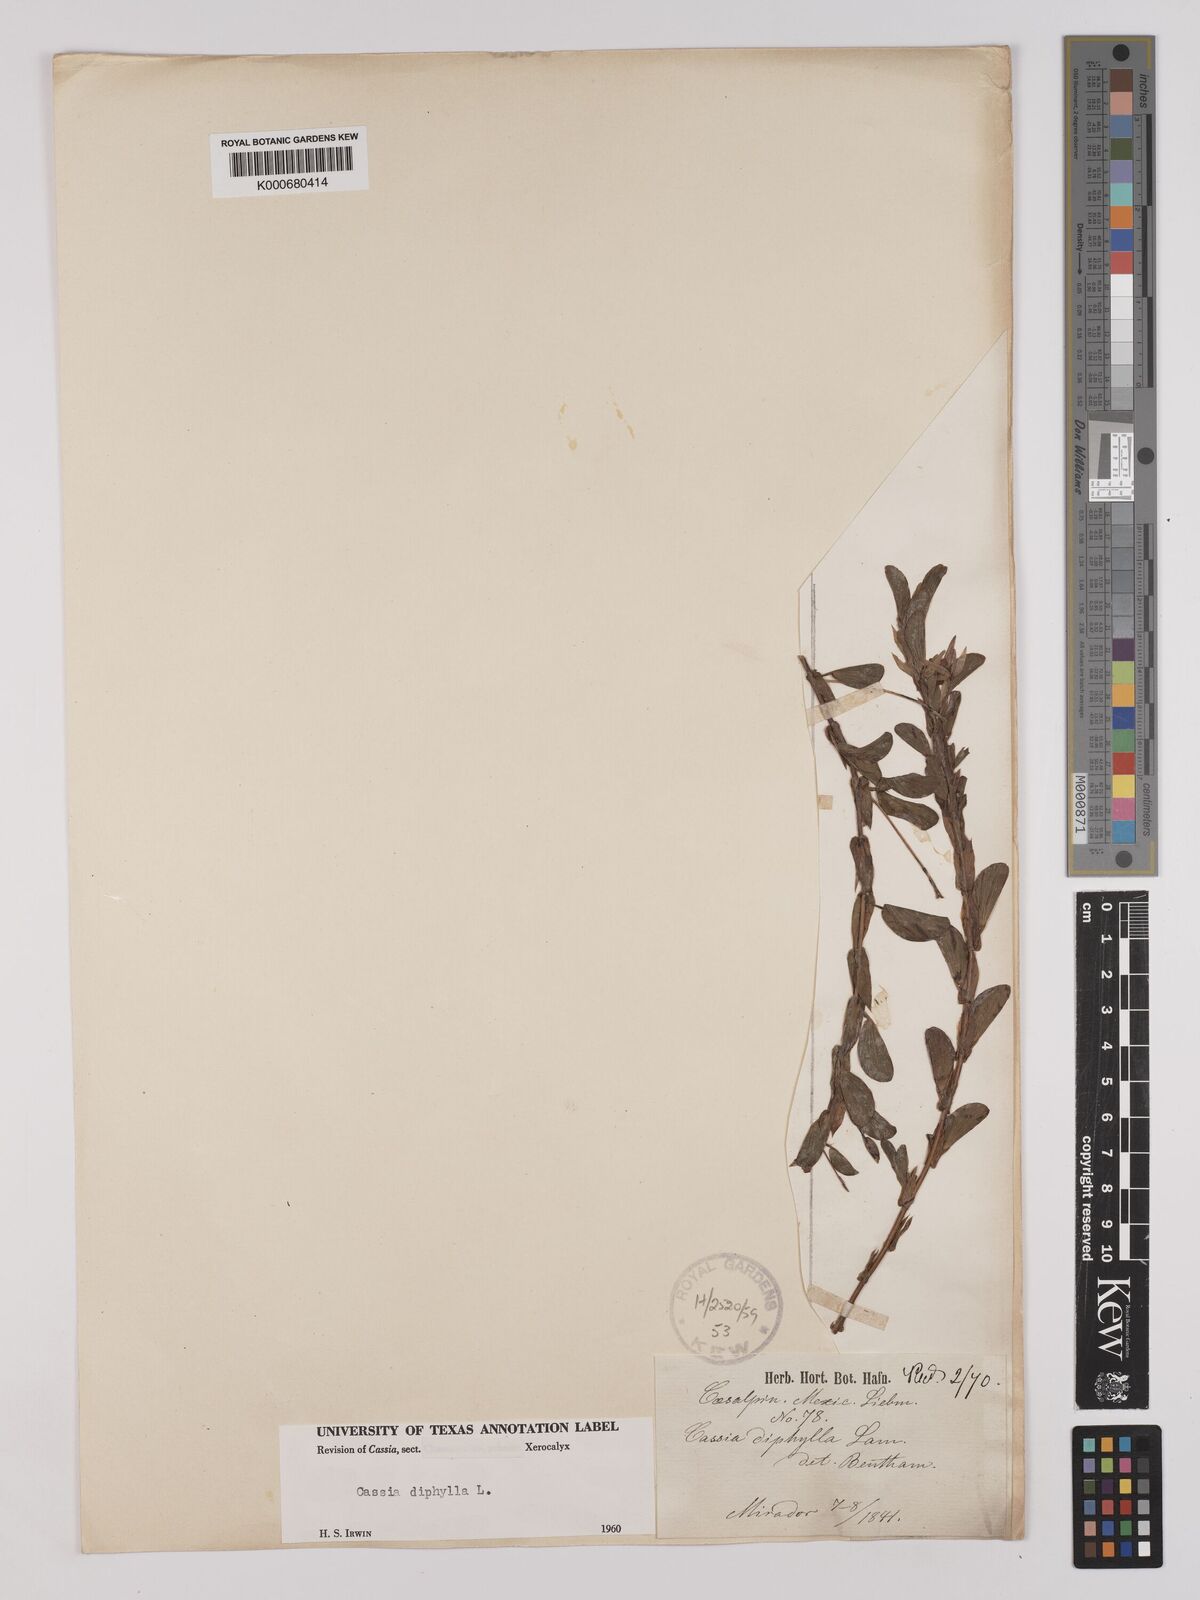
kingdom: Plantae
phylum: Tracheophyta
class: Magnoliopsida
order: Fabales
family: Fabaceae
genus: Chamaecrista
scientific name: Chamaecrista diphylla
